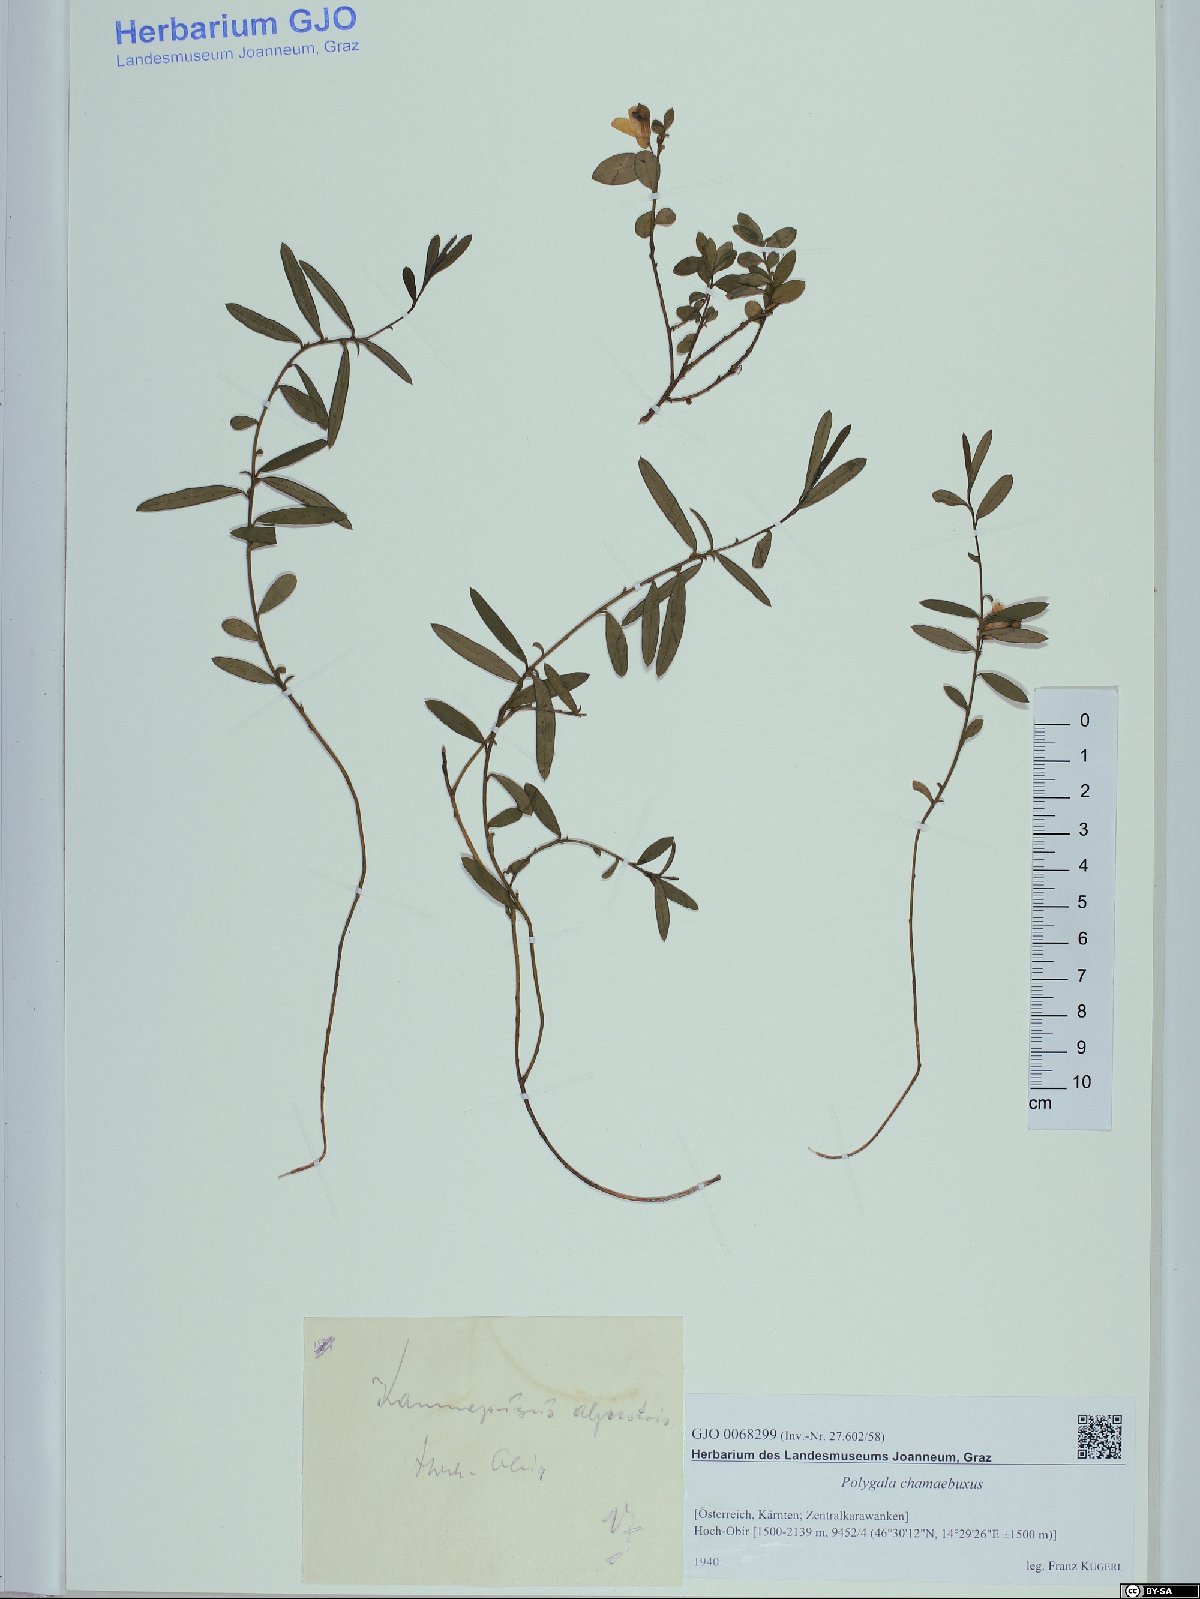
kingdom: Plantae
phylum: Tracheophyta
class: Magnoliopsida
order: Fabales
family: Polygalaceae
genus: Polygaloides
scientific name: Polygaloides chamaebuxus
